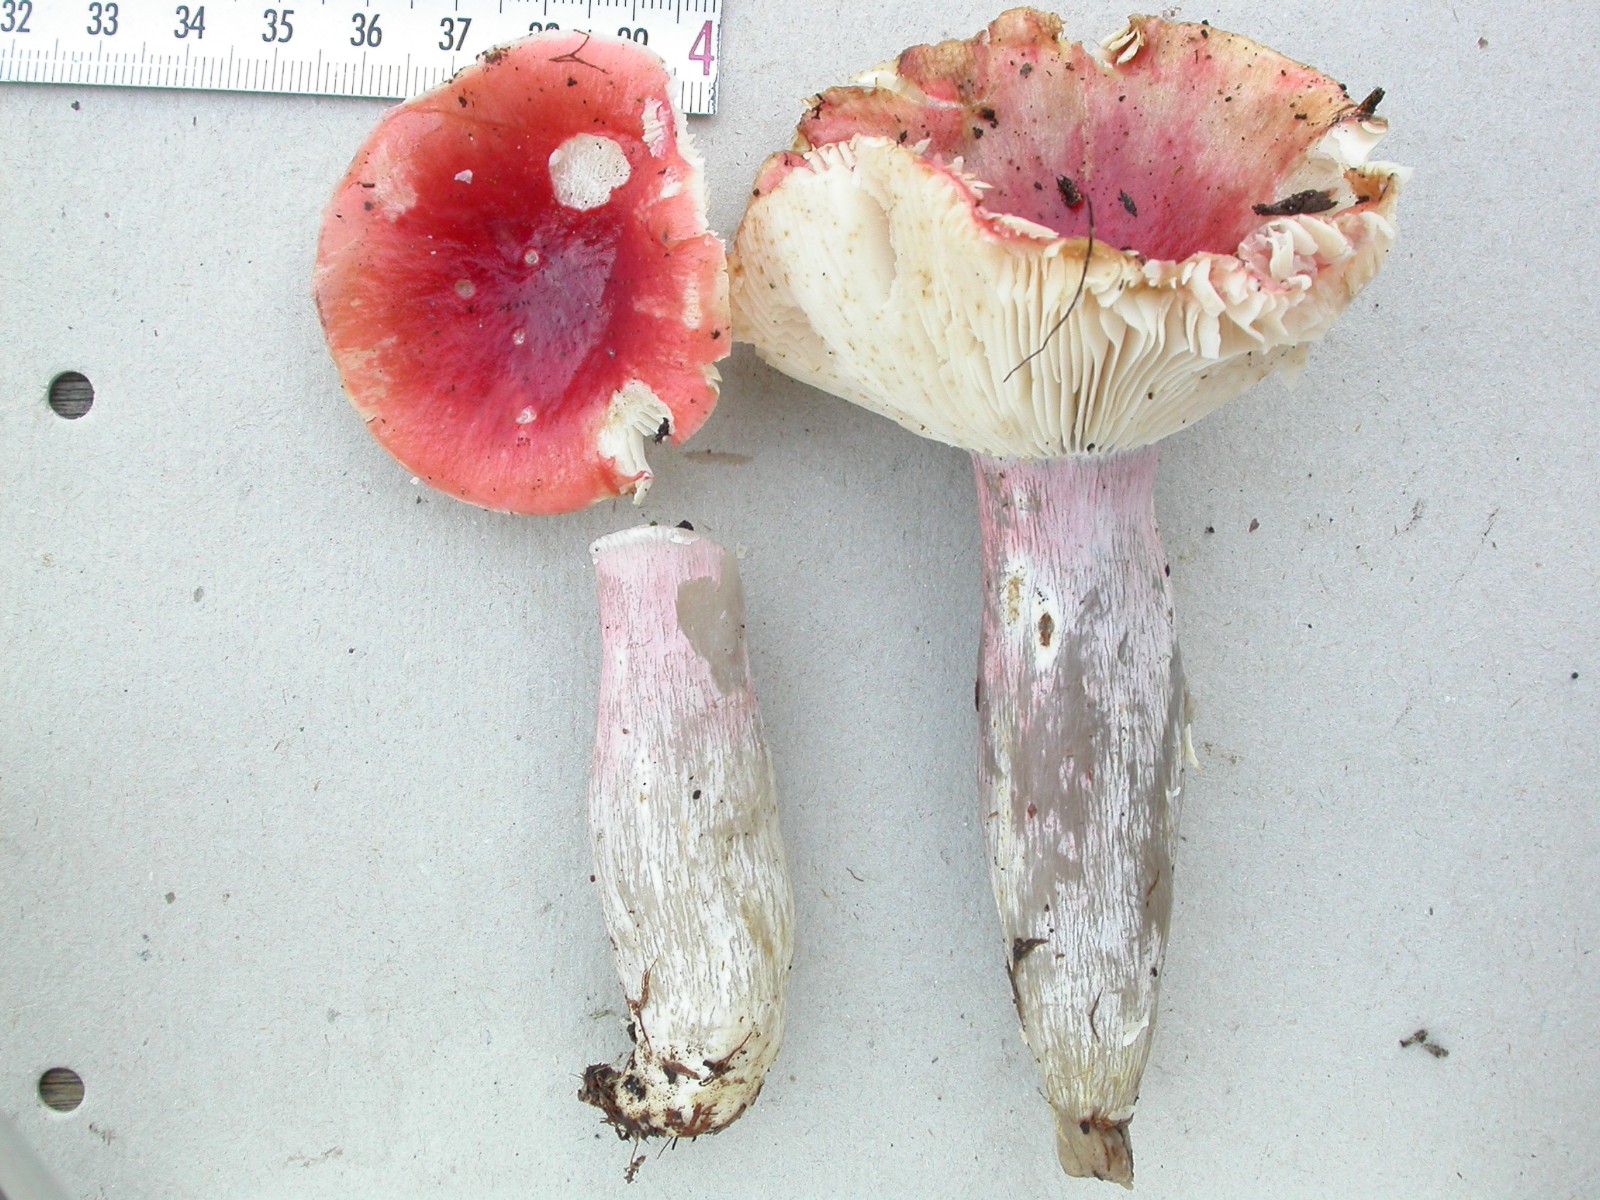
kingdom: Fungi
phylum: Basidiomycota
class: Agaricomycetes
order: Russulales
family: Russulaceae
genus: Russula
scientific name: Russula helodes
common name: sump-skørhat
